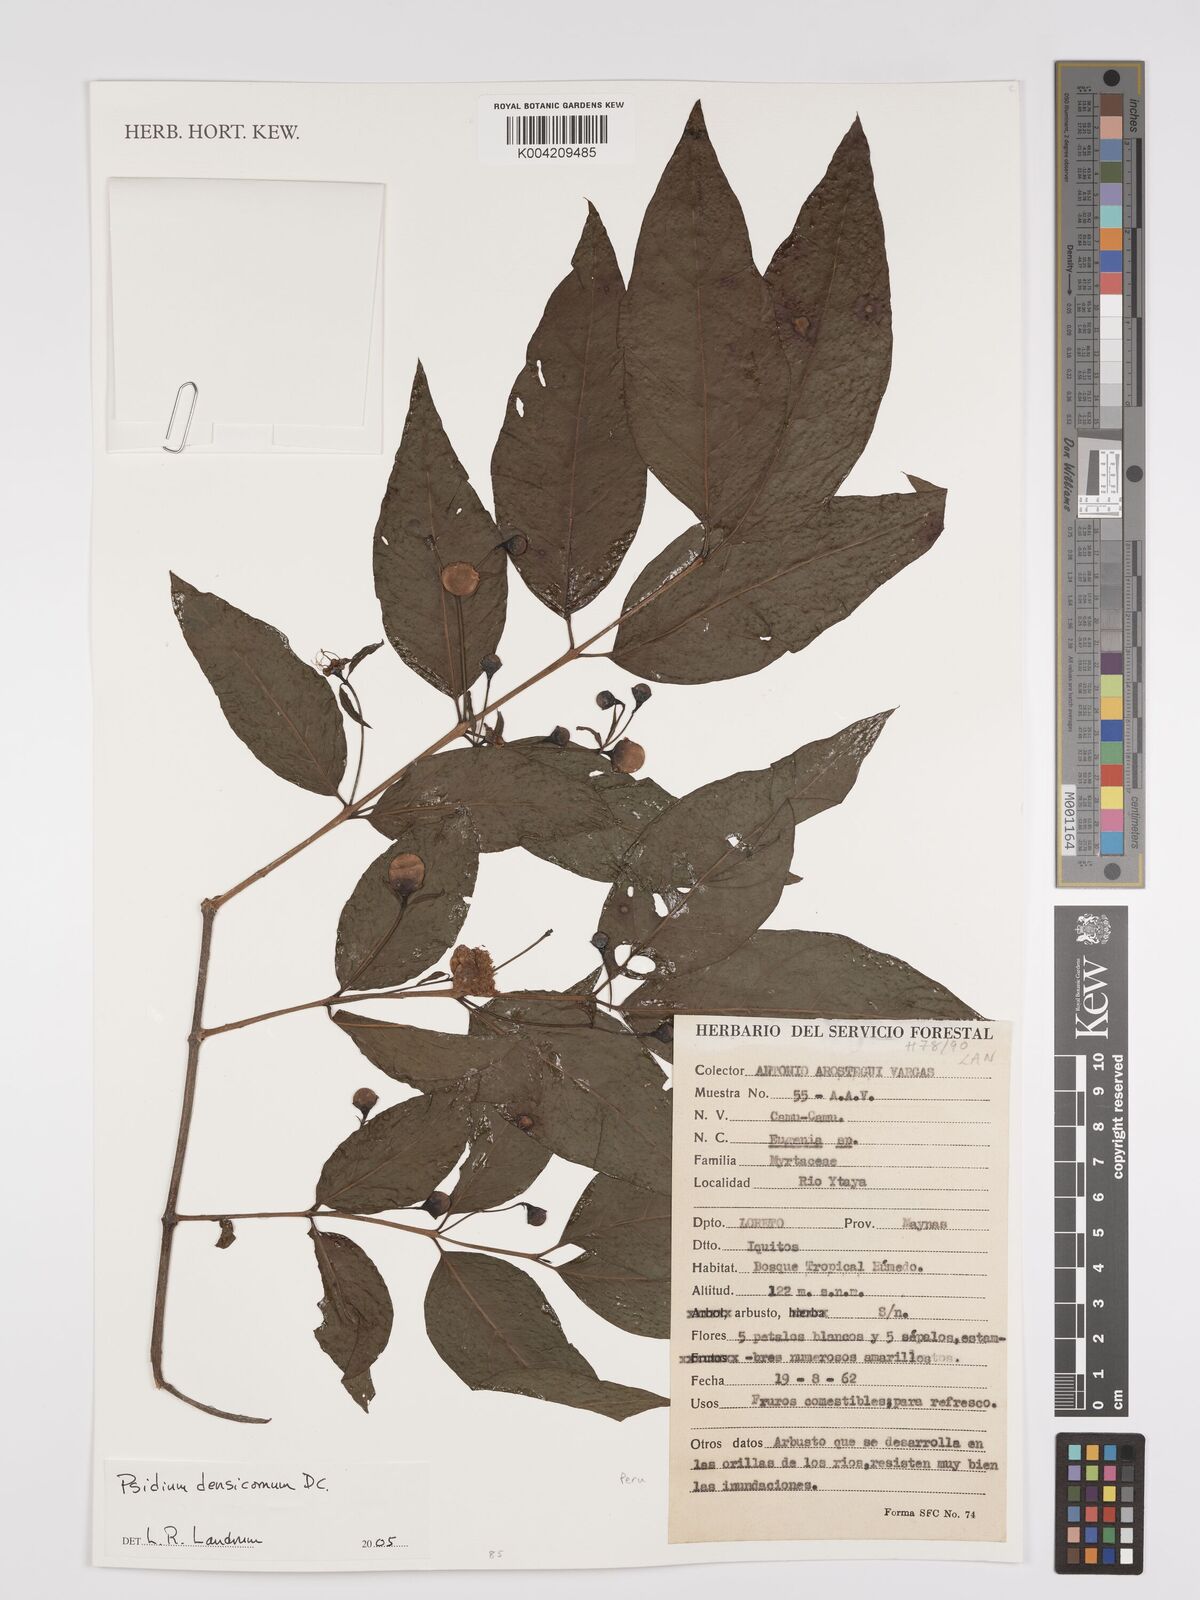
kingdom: Plantae
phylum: Tracheophyta
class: Magnoliopsida
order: Myrtales
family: Myrtaceae
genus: Psidium
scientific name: Psidium densicomum
